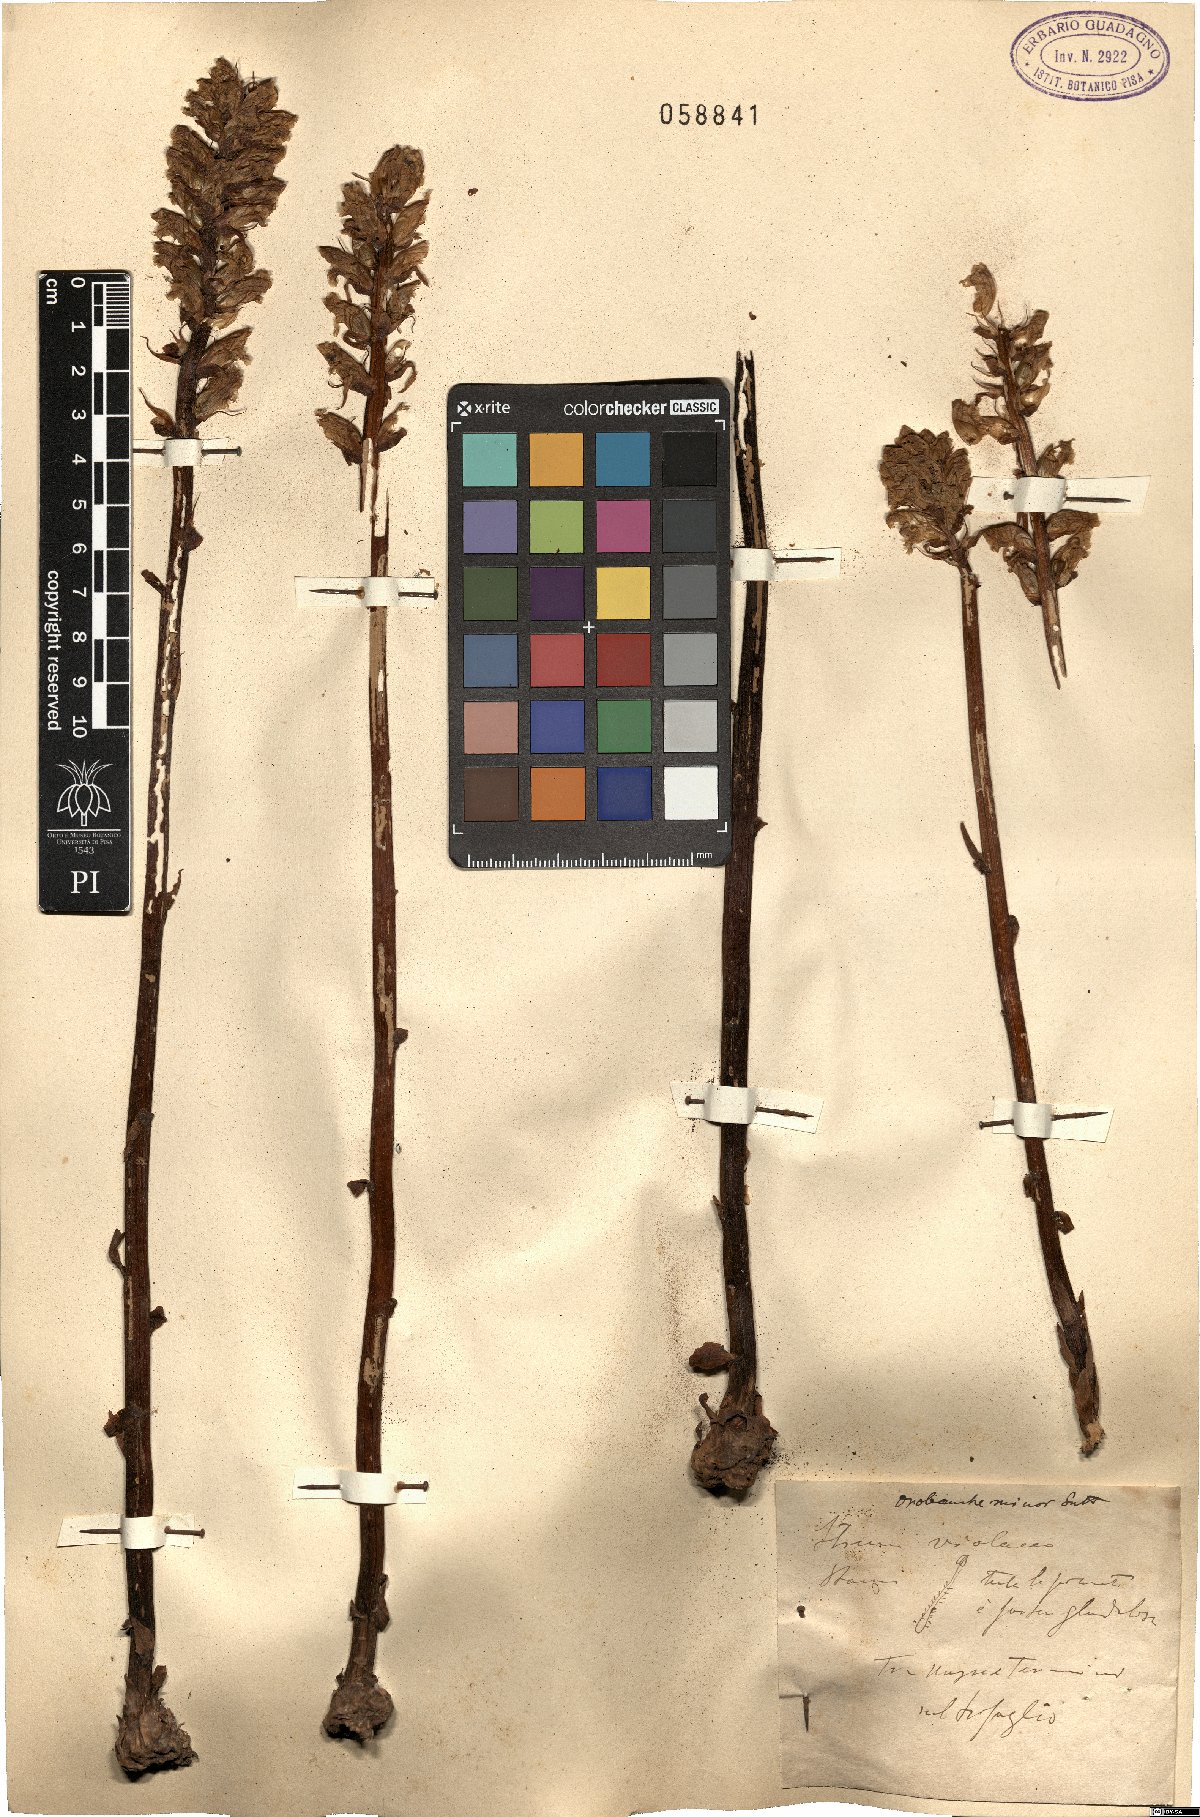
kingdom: Plantae
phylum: Tracheophyta
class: Magnoliopsida
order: Lamiales
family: Orobanchaceae
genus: Orobanche
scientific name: Orobanche minor
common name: Common broomrape
